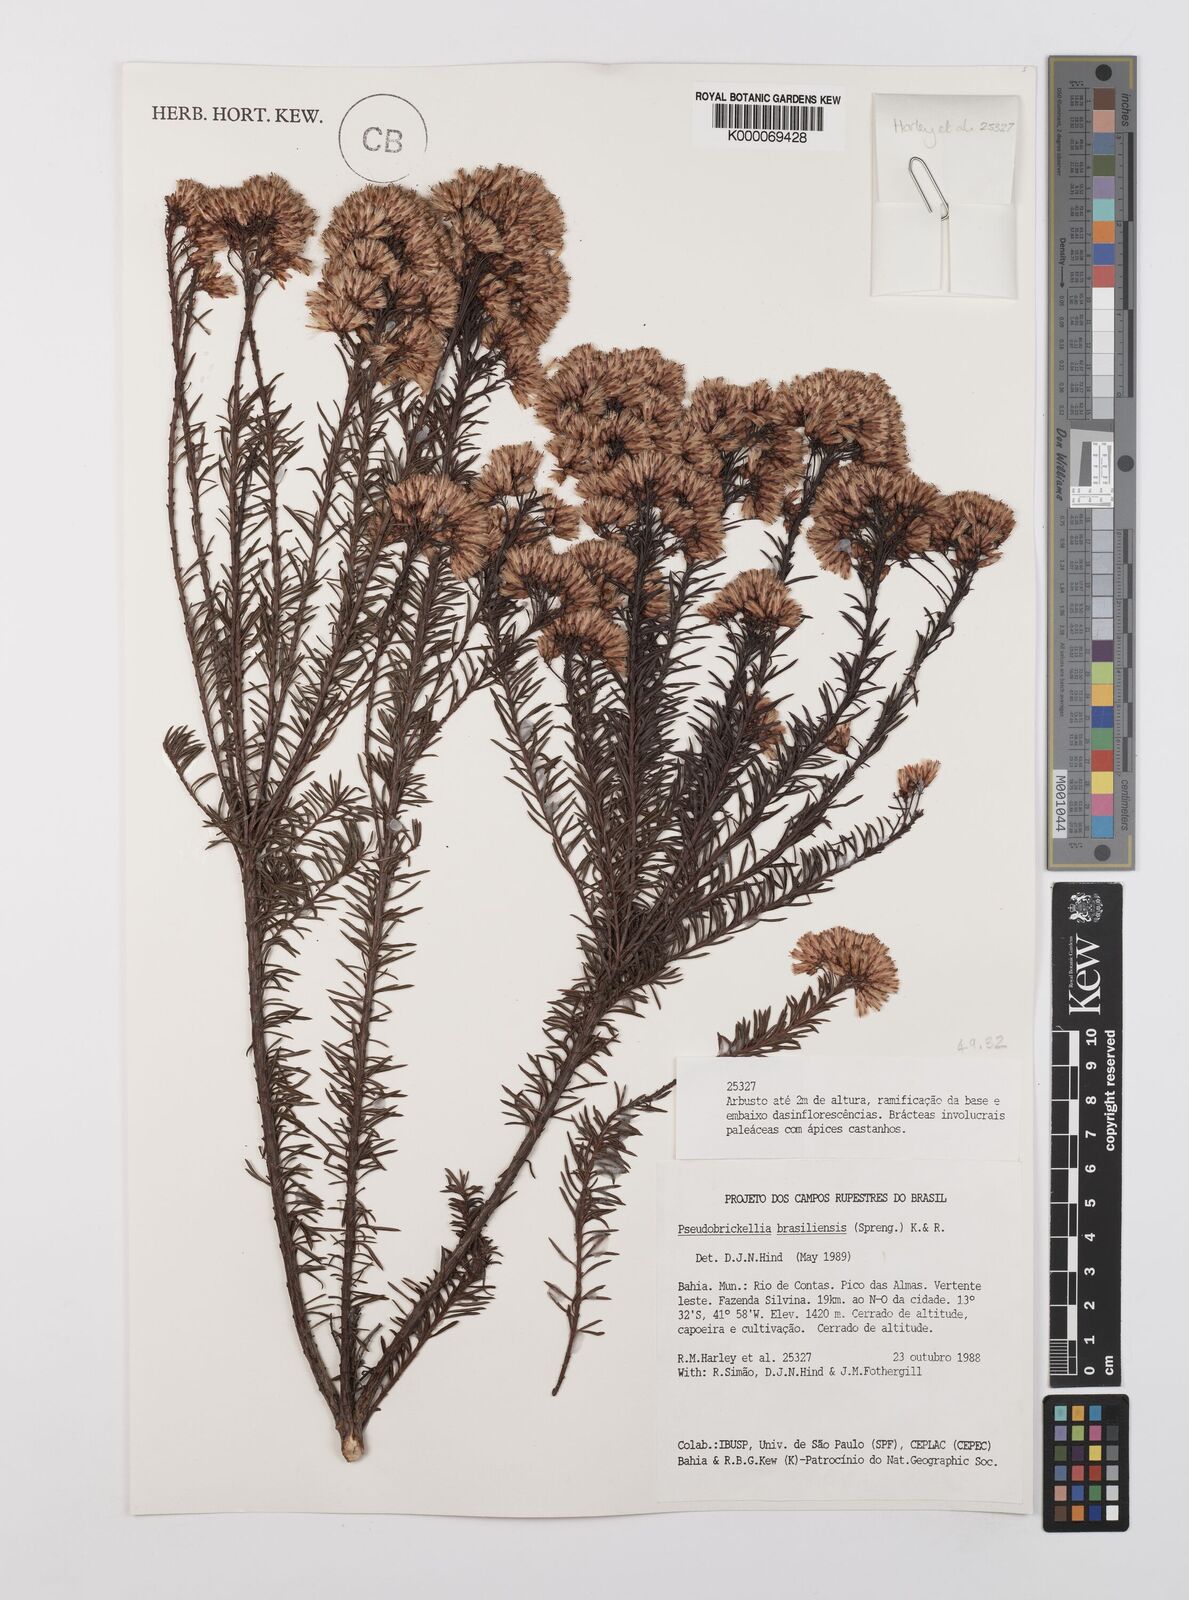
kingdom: Plantae
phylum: Tracheophyta
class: Magnoliopsida
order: Asterales
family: Asteraceae
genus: Pseudobrickellia
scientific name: Pseudobrickellia brasiliensis
